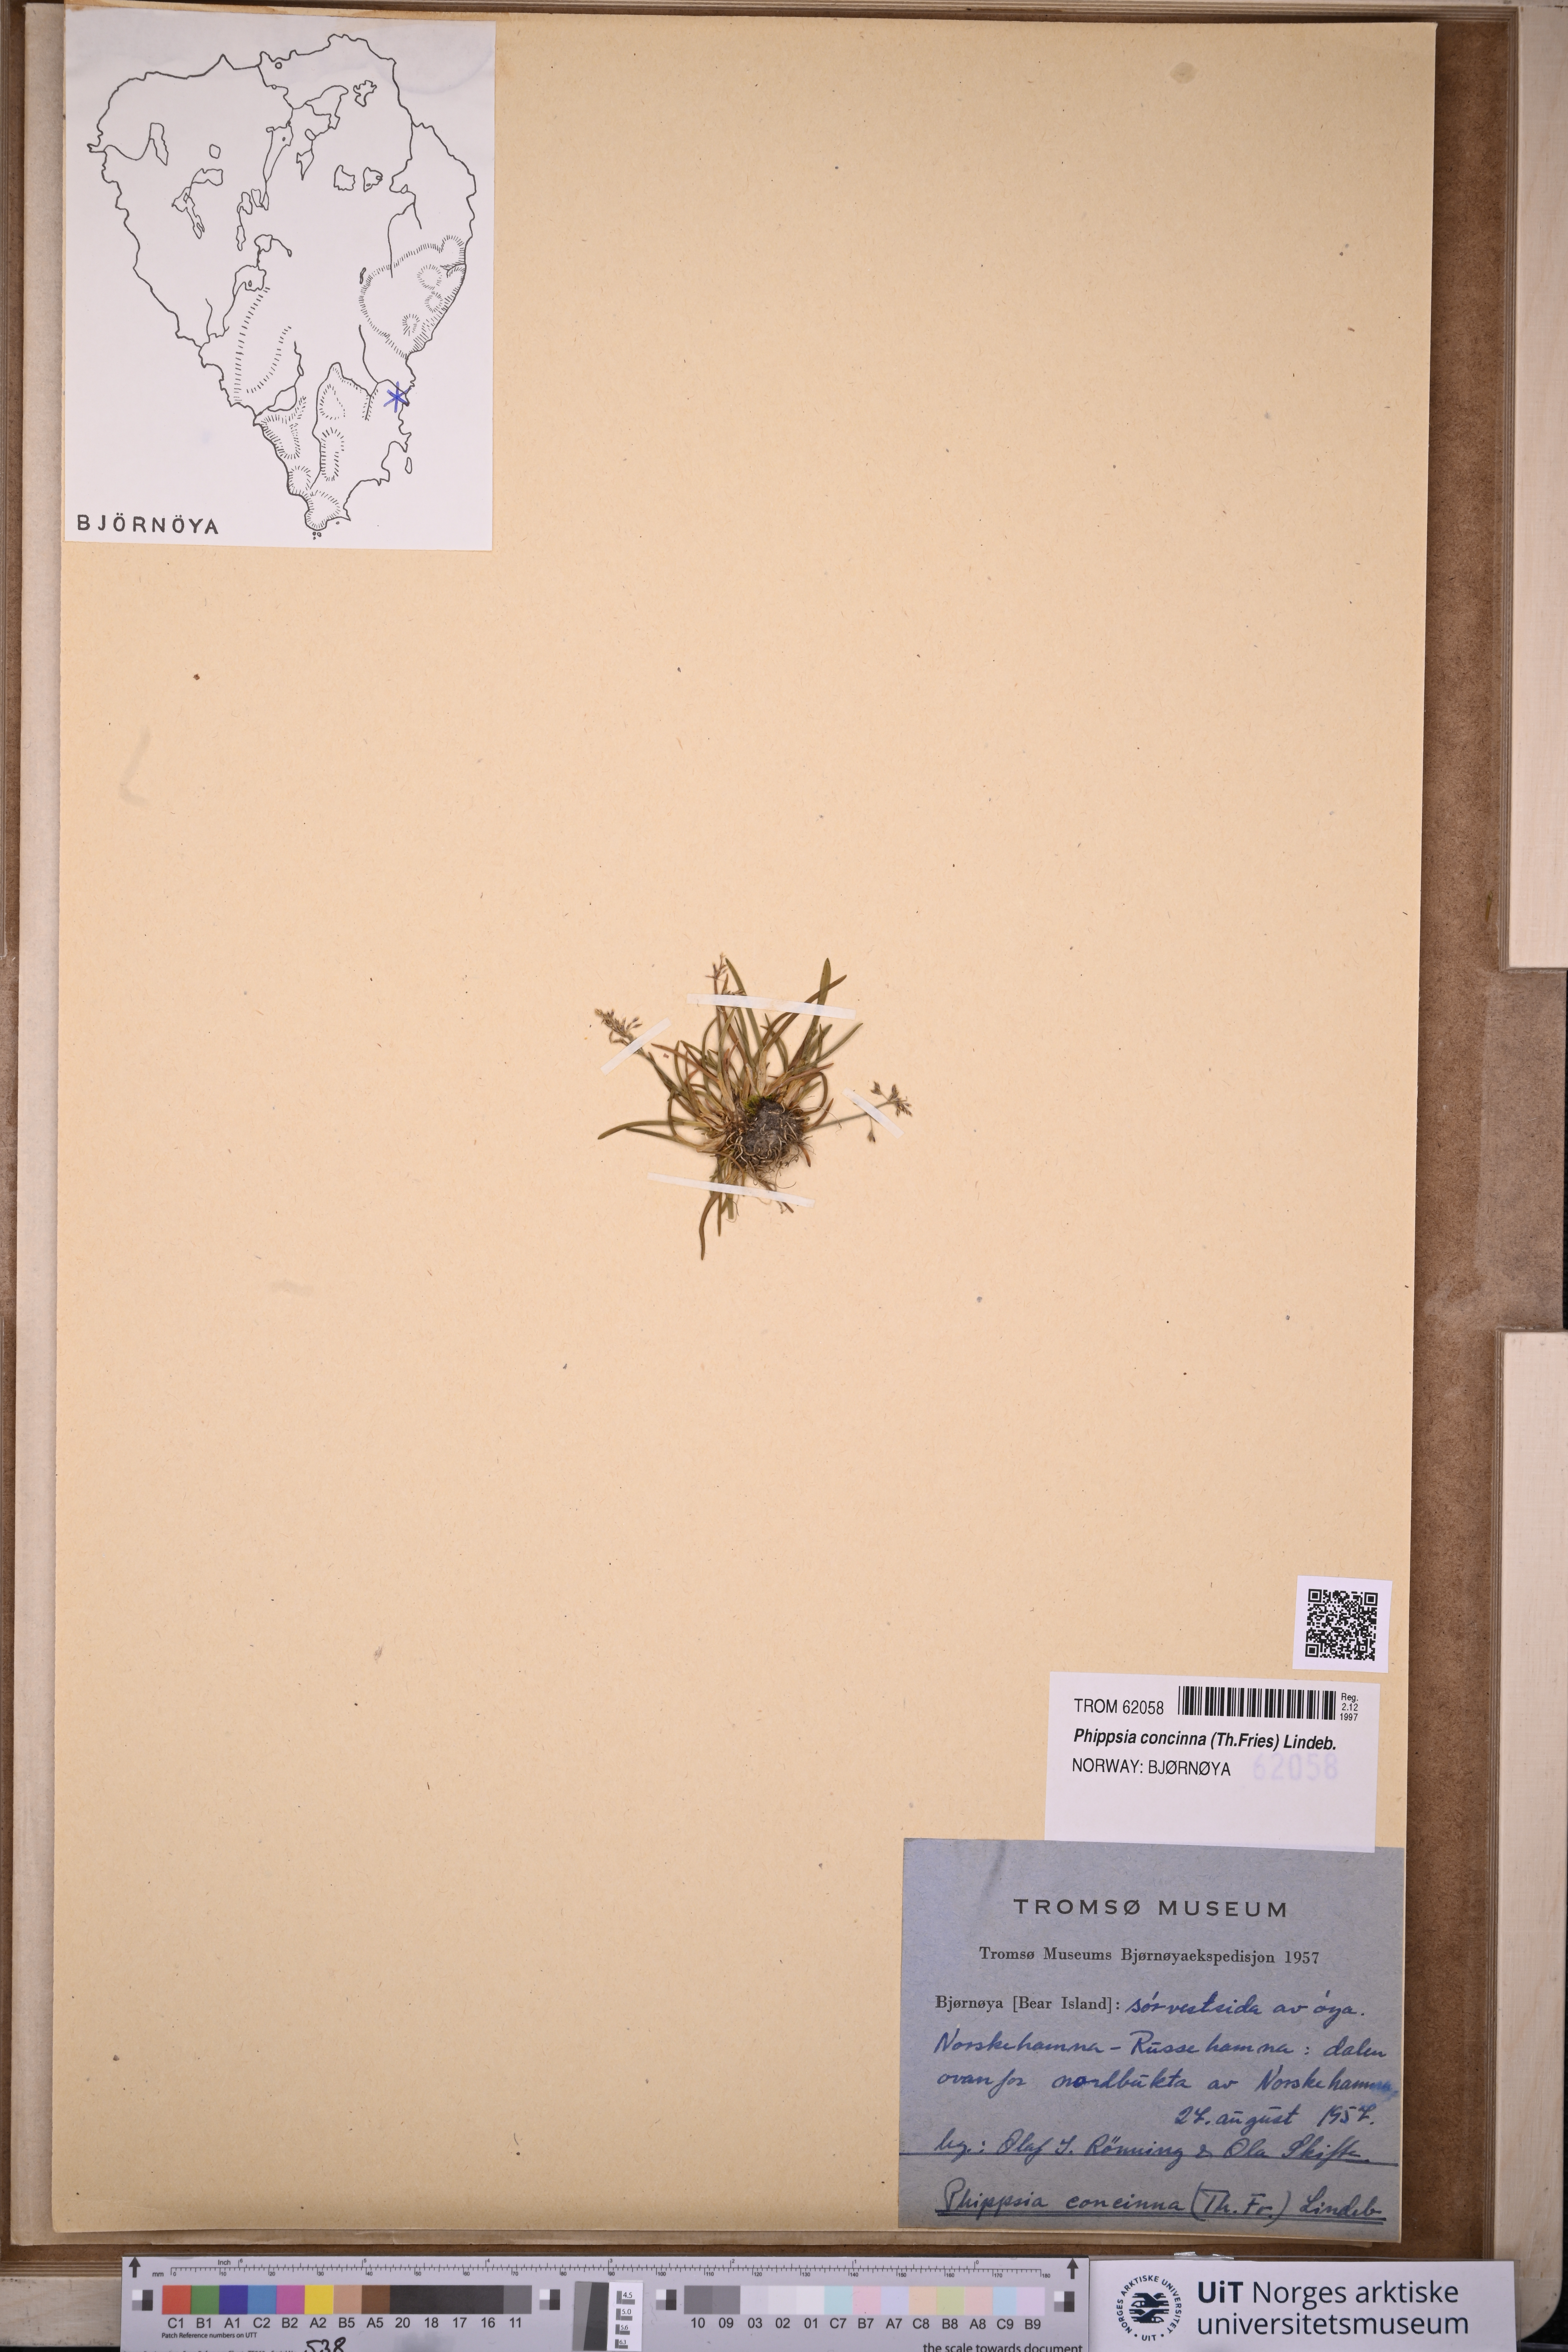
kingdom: Plantae
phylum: Tracheophyta
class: Liliopsida
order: Poales
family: Poaceae
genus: Phippsia
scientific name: Phippsia concinna
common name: Snowgrass
